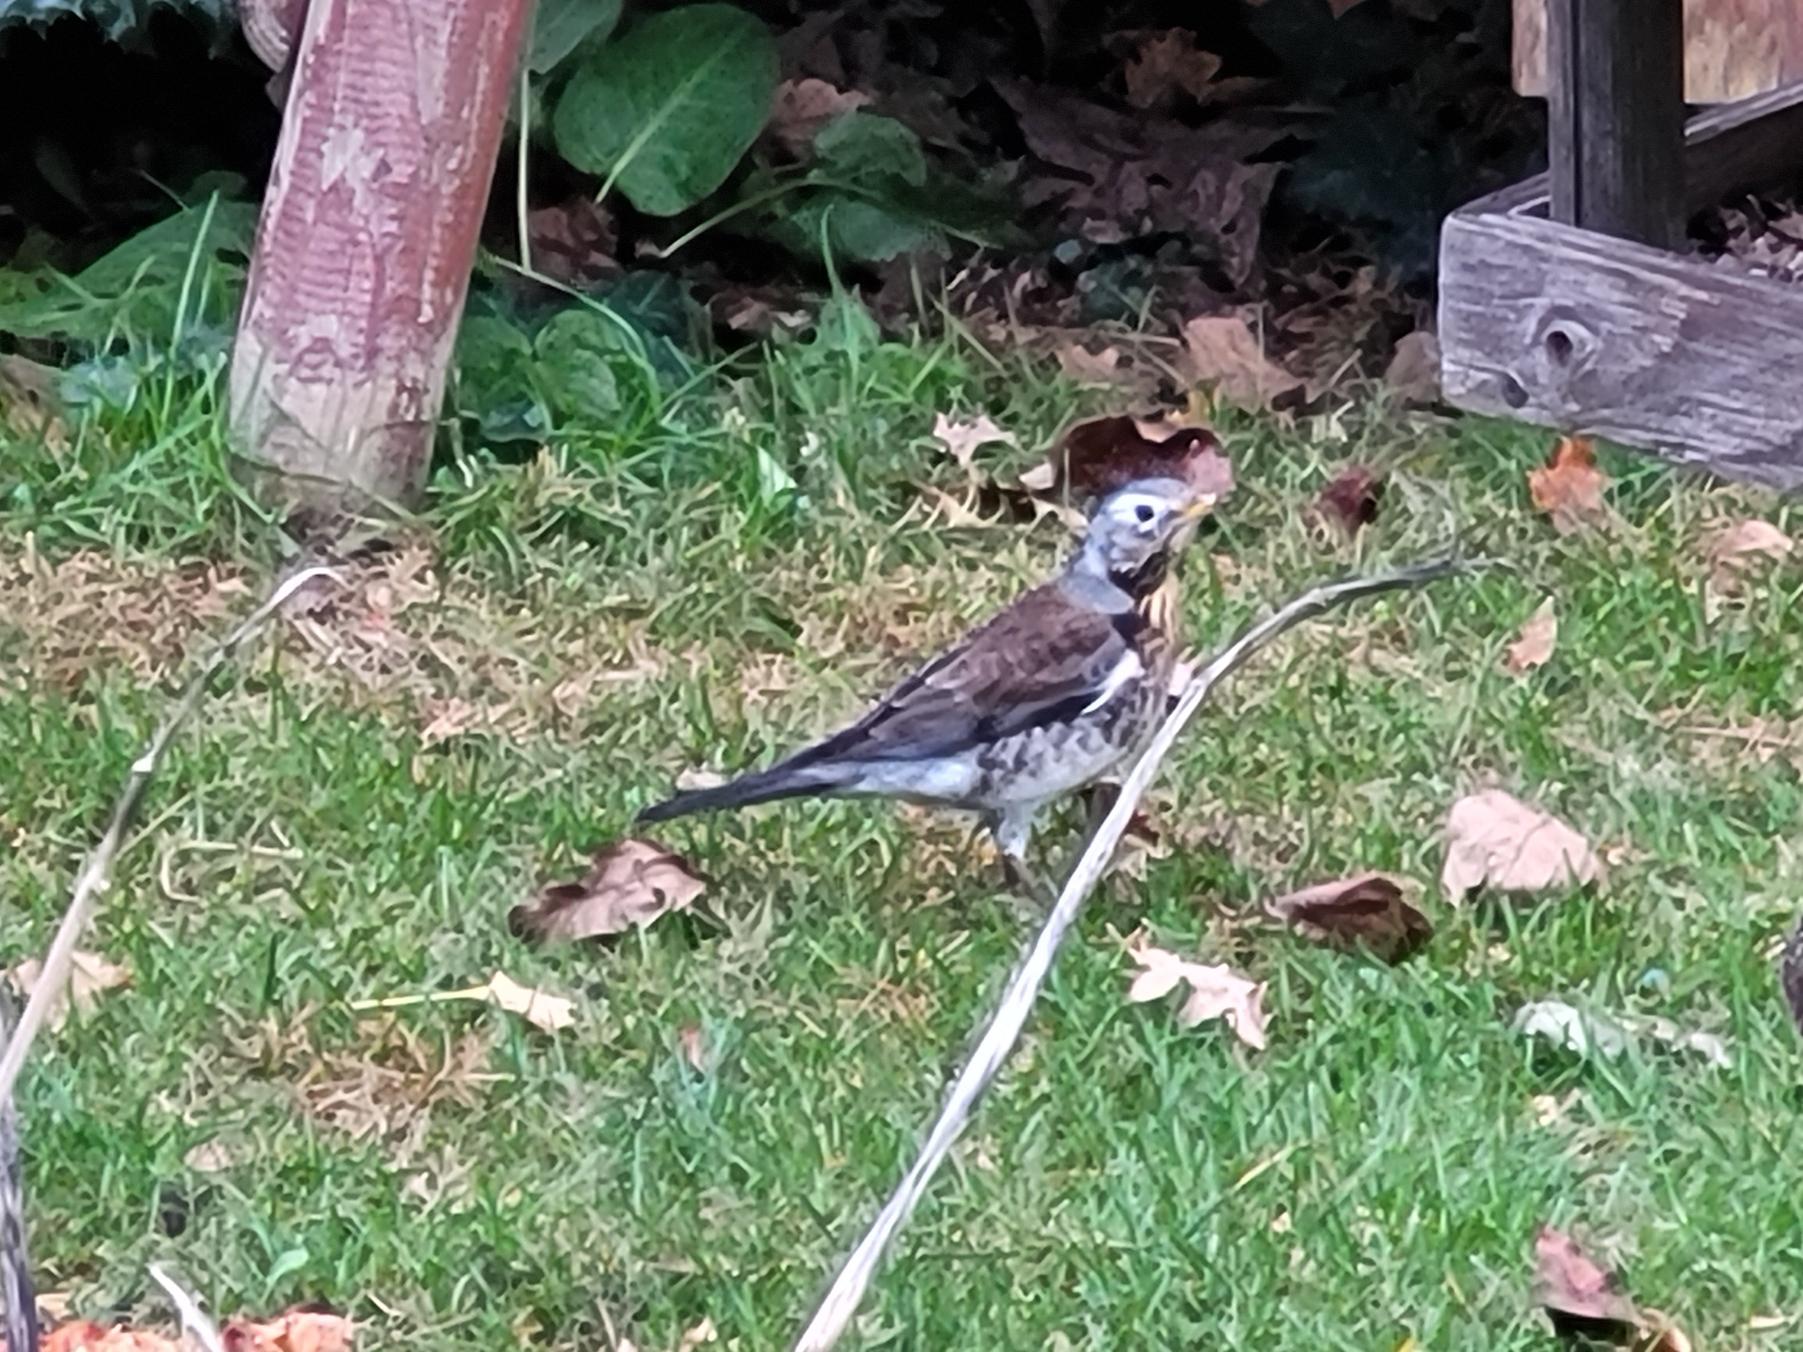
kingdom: Animalia
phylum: Chordata
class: Aves
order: Passeriformes
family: Turdidae
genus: Turdus
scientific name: Turdus pilaris
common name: Sjagger
